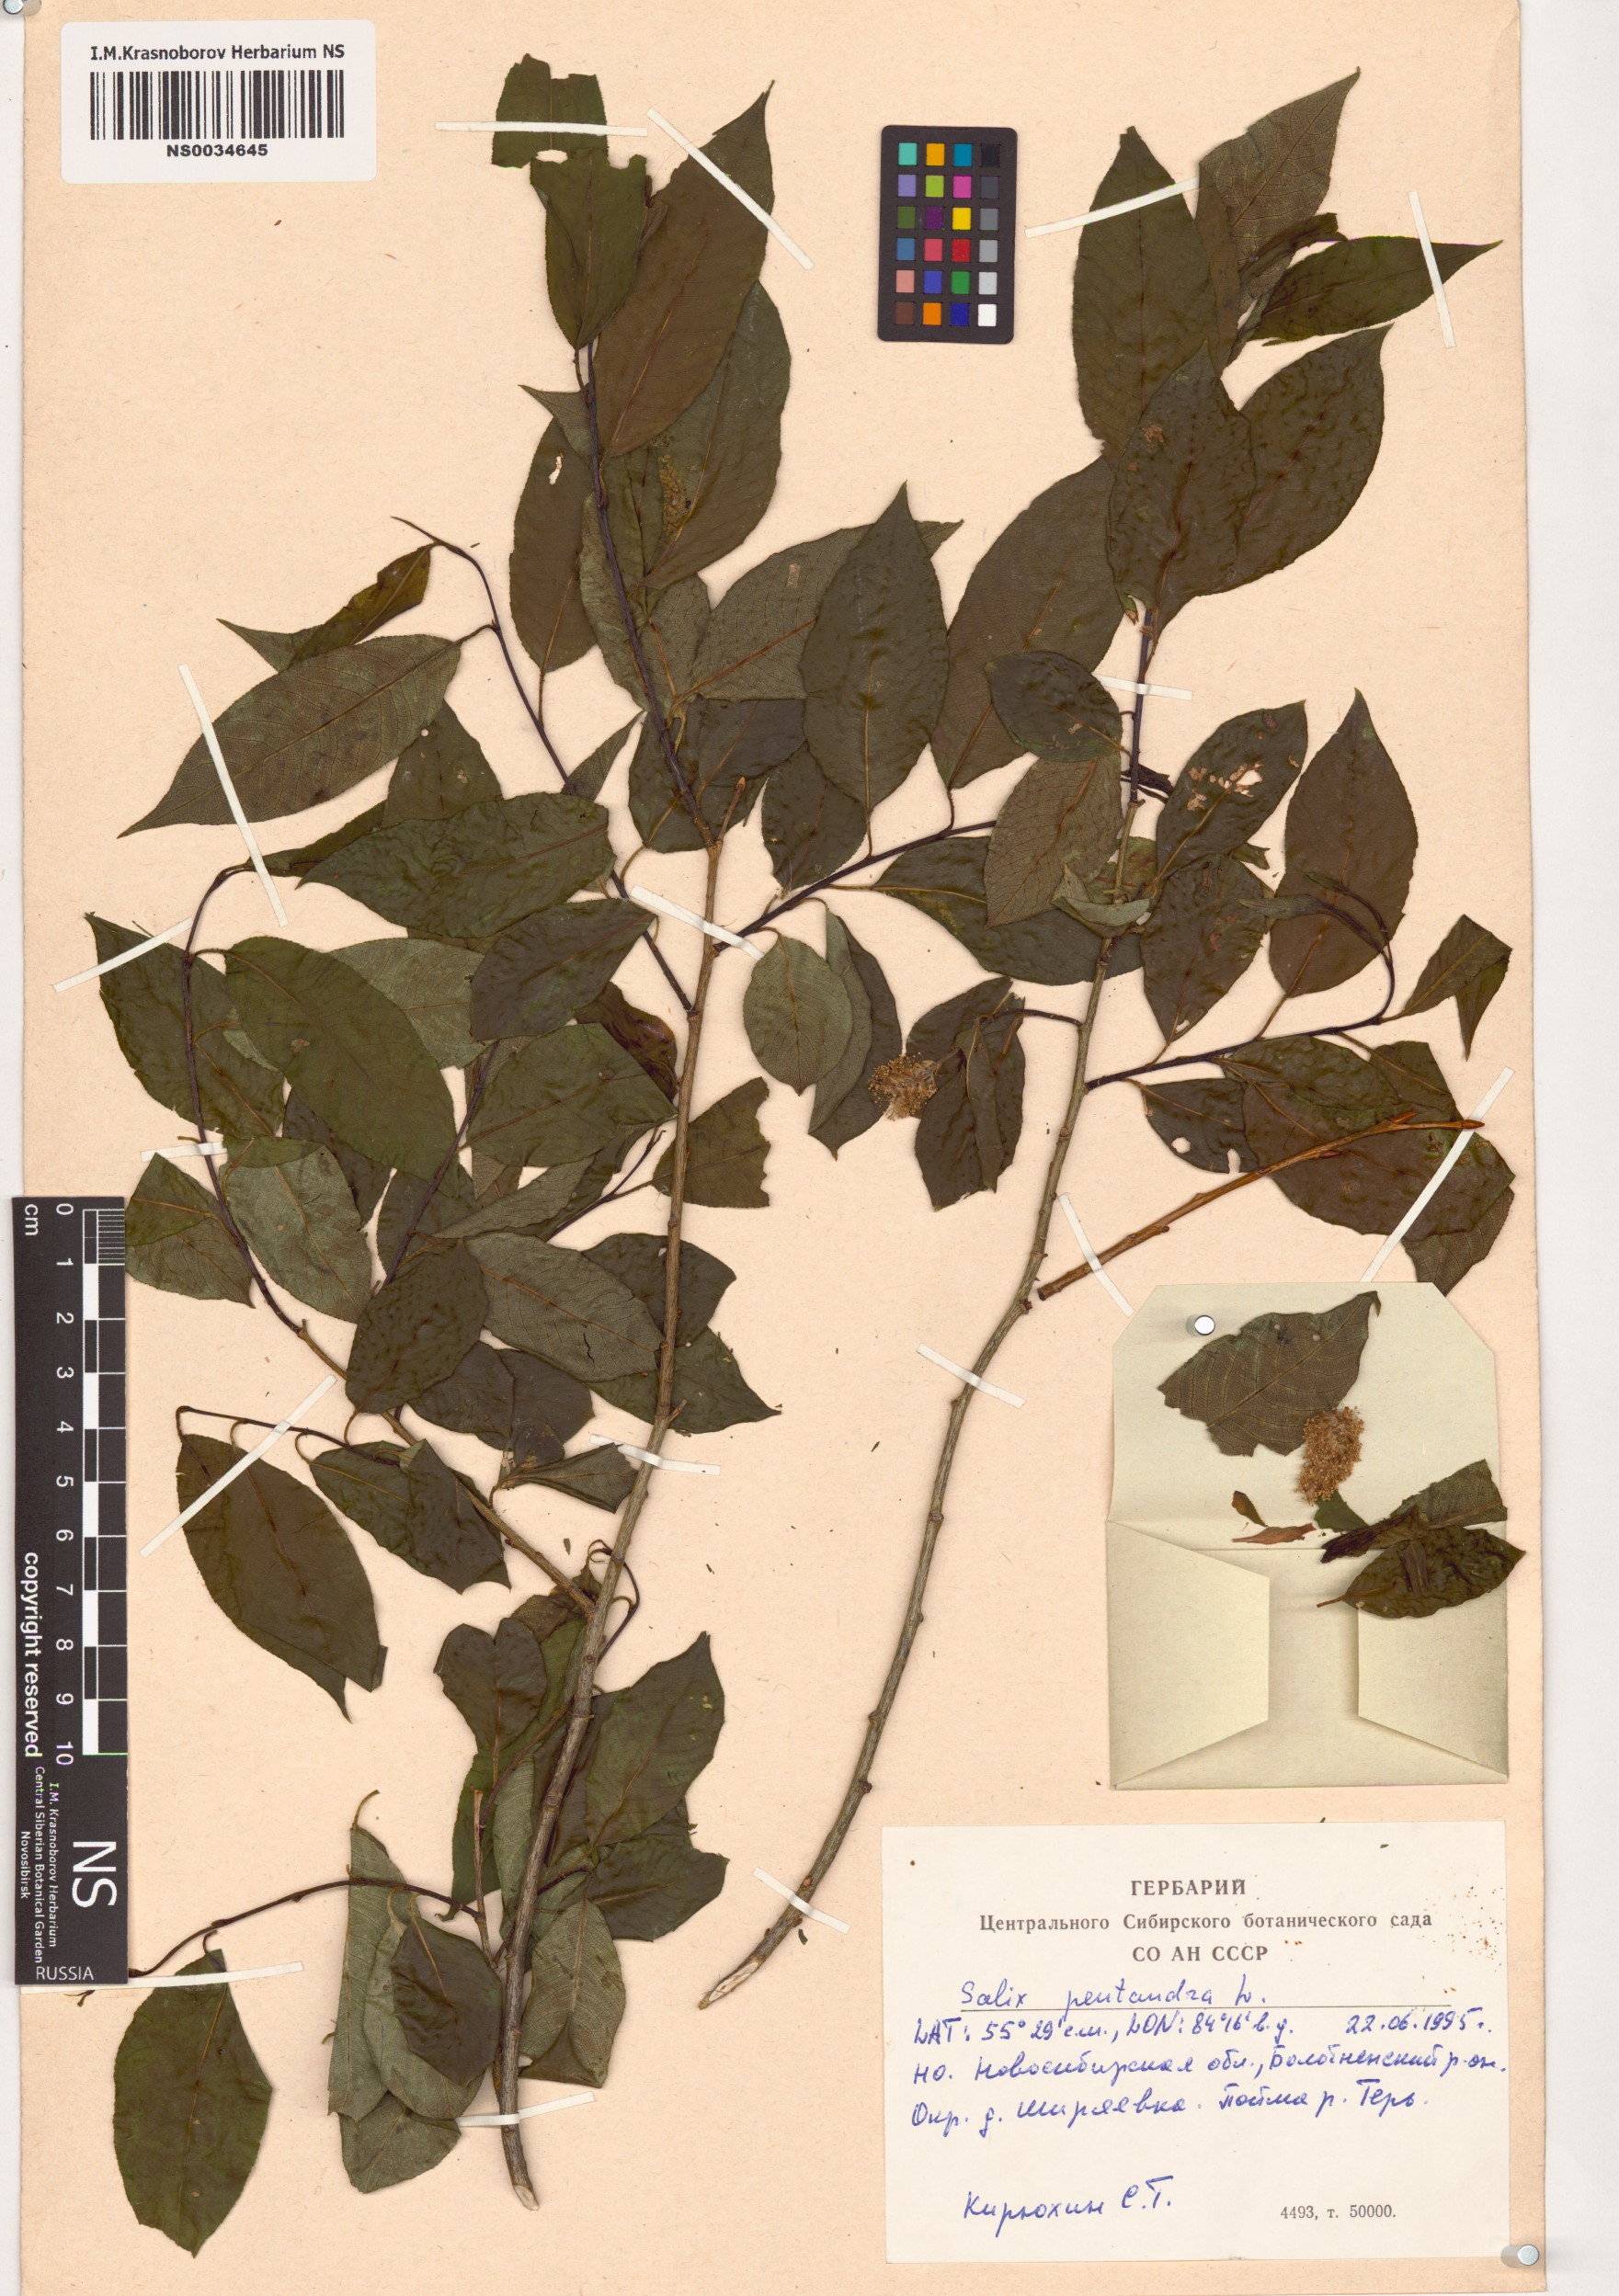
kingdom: Plantae
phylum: Tracheophyta
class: Magnoliopsida
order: Malpighiales
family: Salicaceae
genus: Salix
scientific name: Salix pentandra
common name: Bay willow
